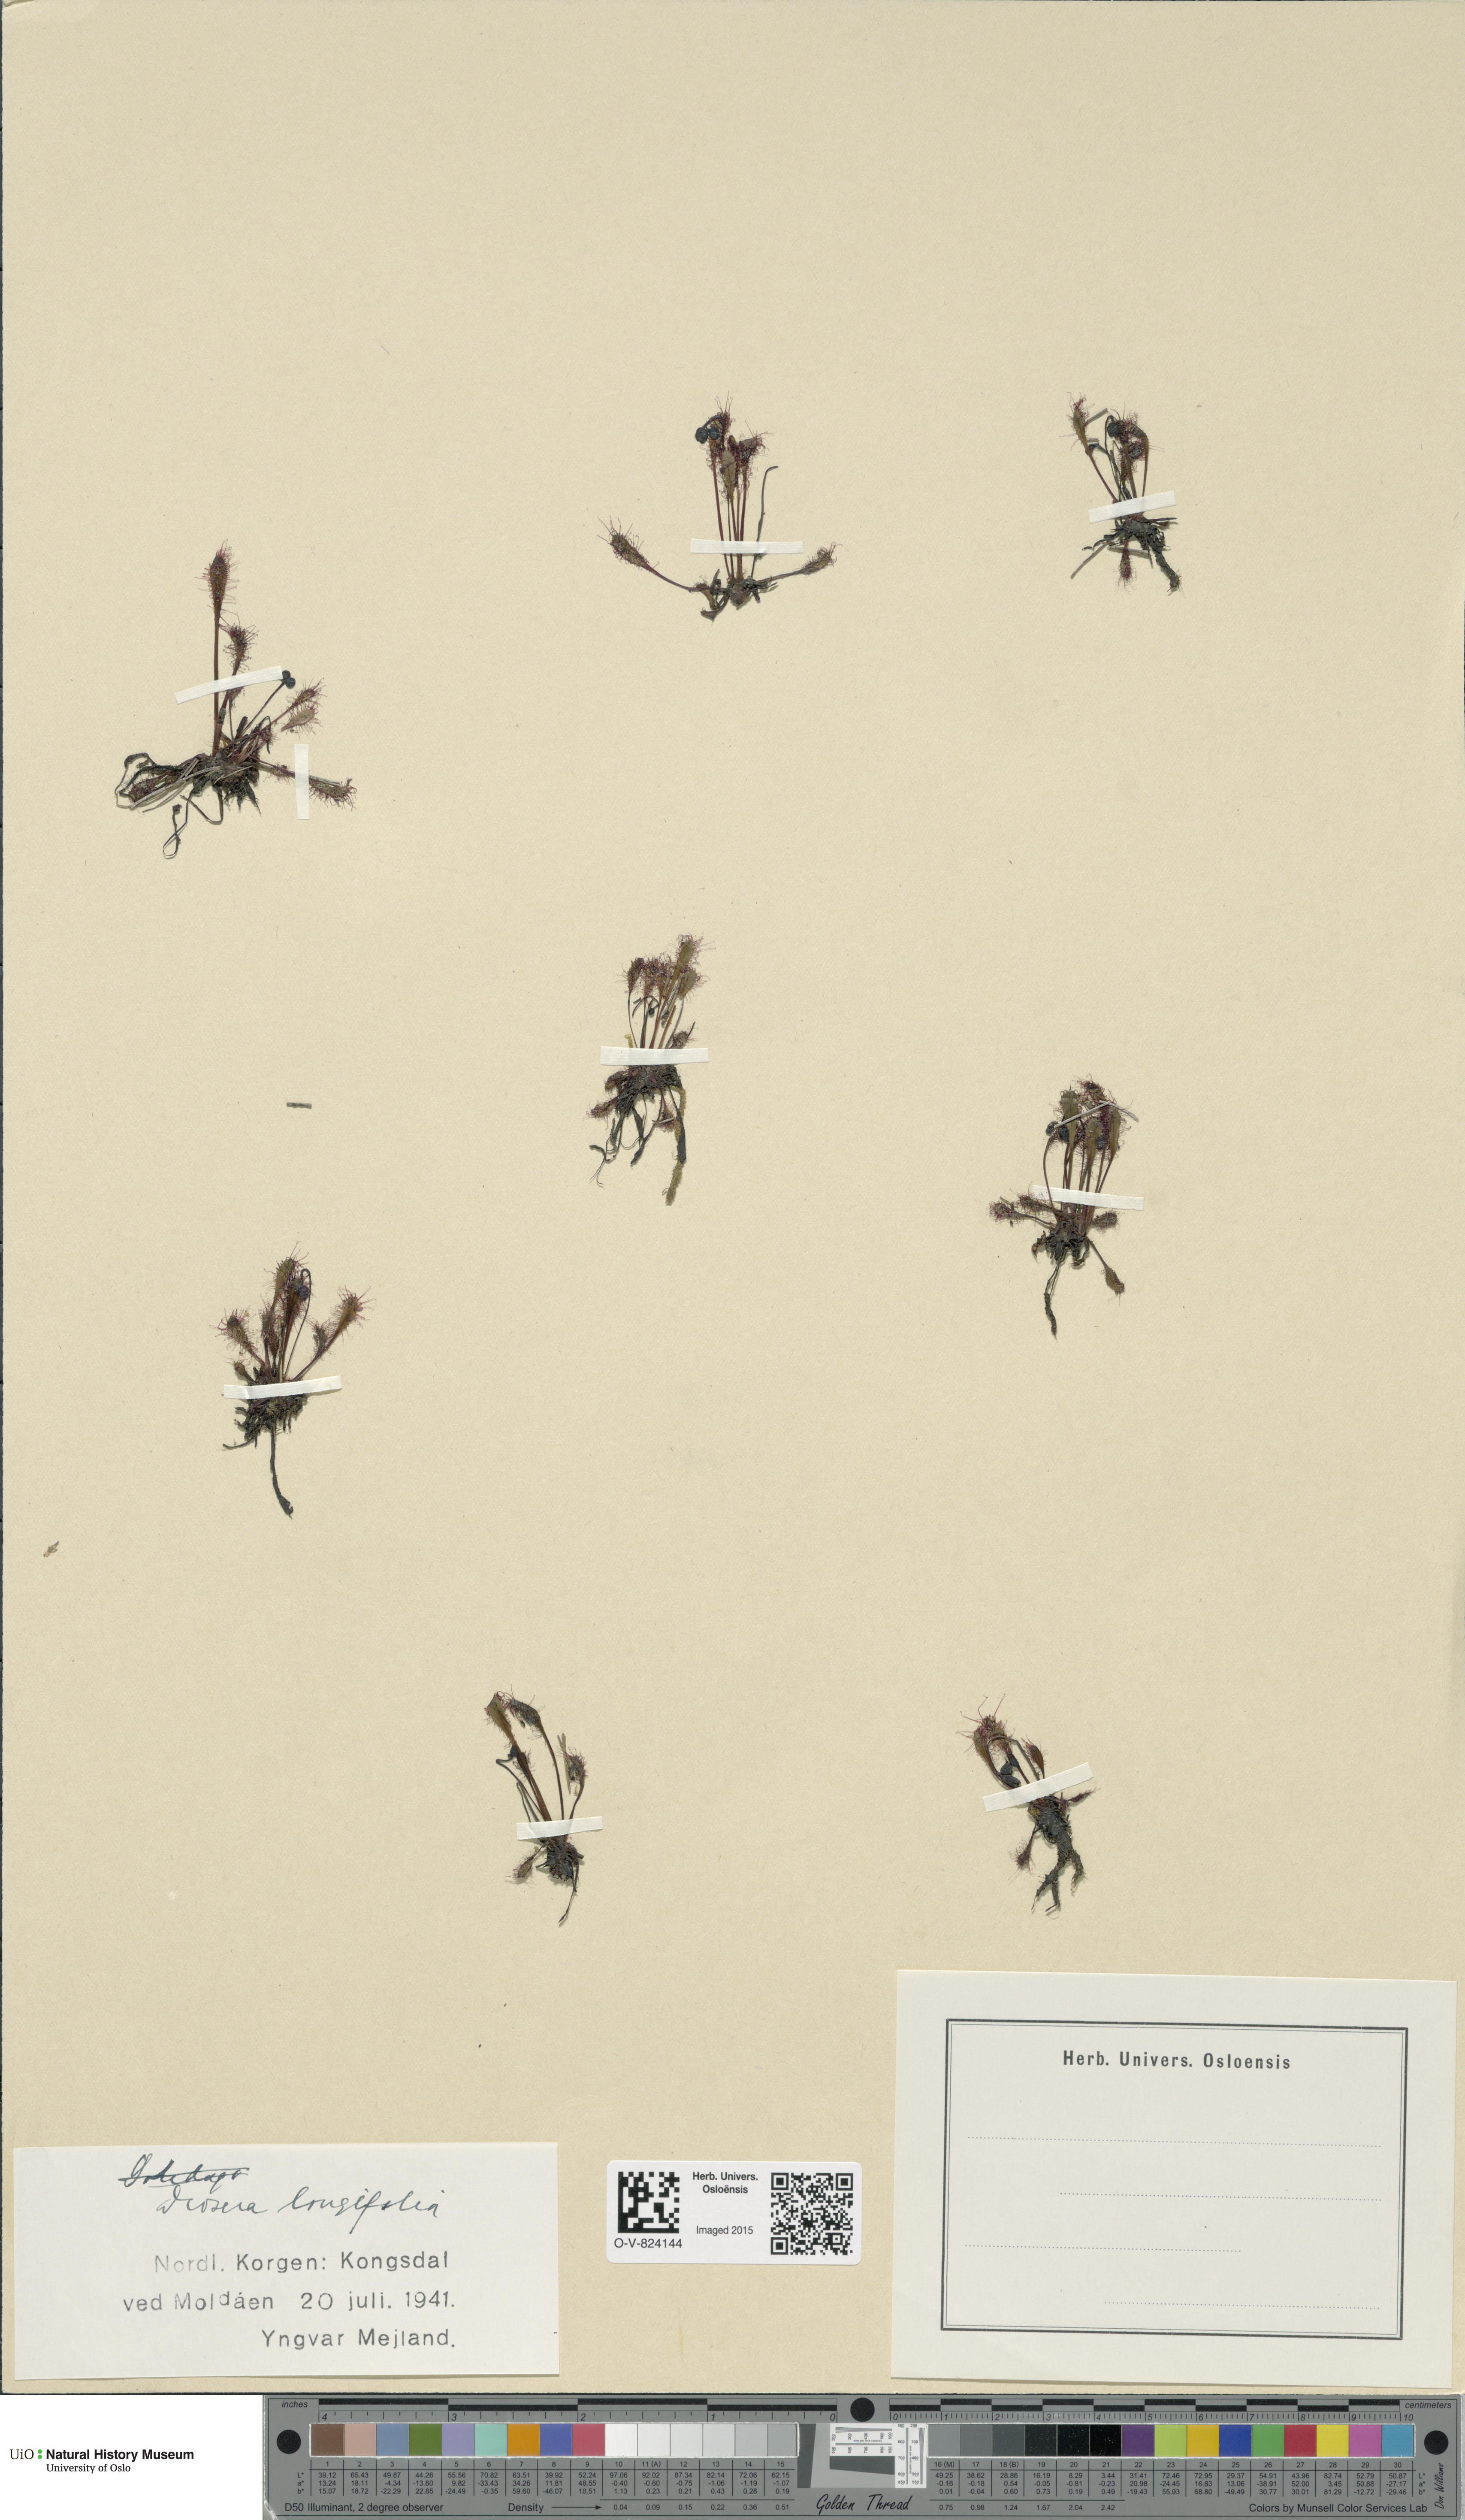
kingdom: Plantae
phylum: Tracheophyta
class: Magnoliopsida
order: Caryophyllales
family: Droseraceae
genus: Drosera
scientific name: Drosera anglica
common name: Great sundew
